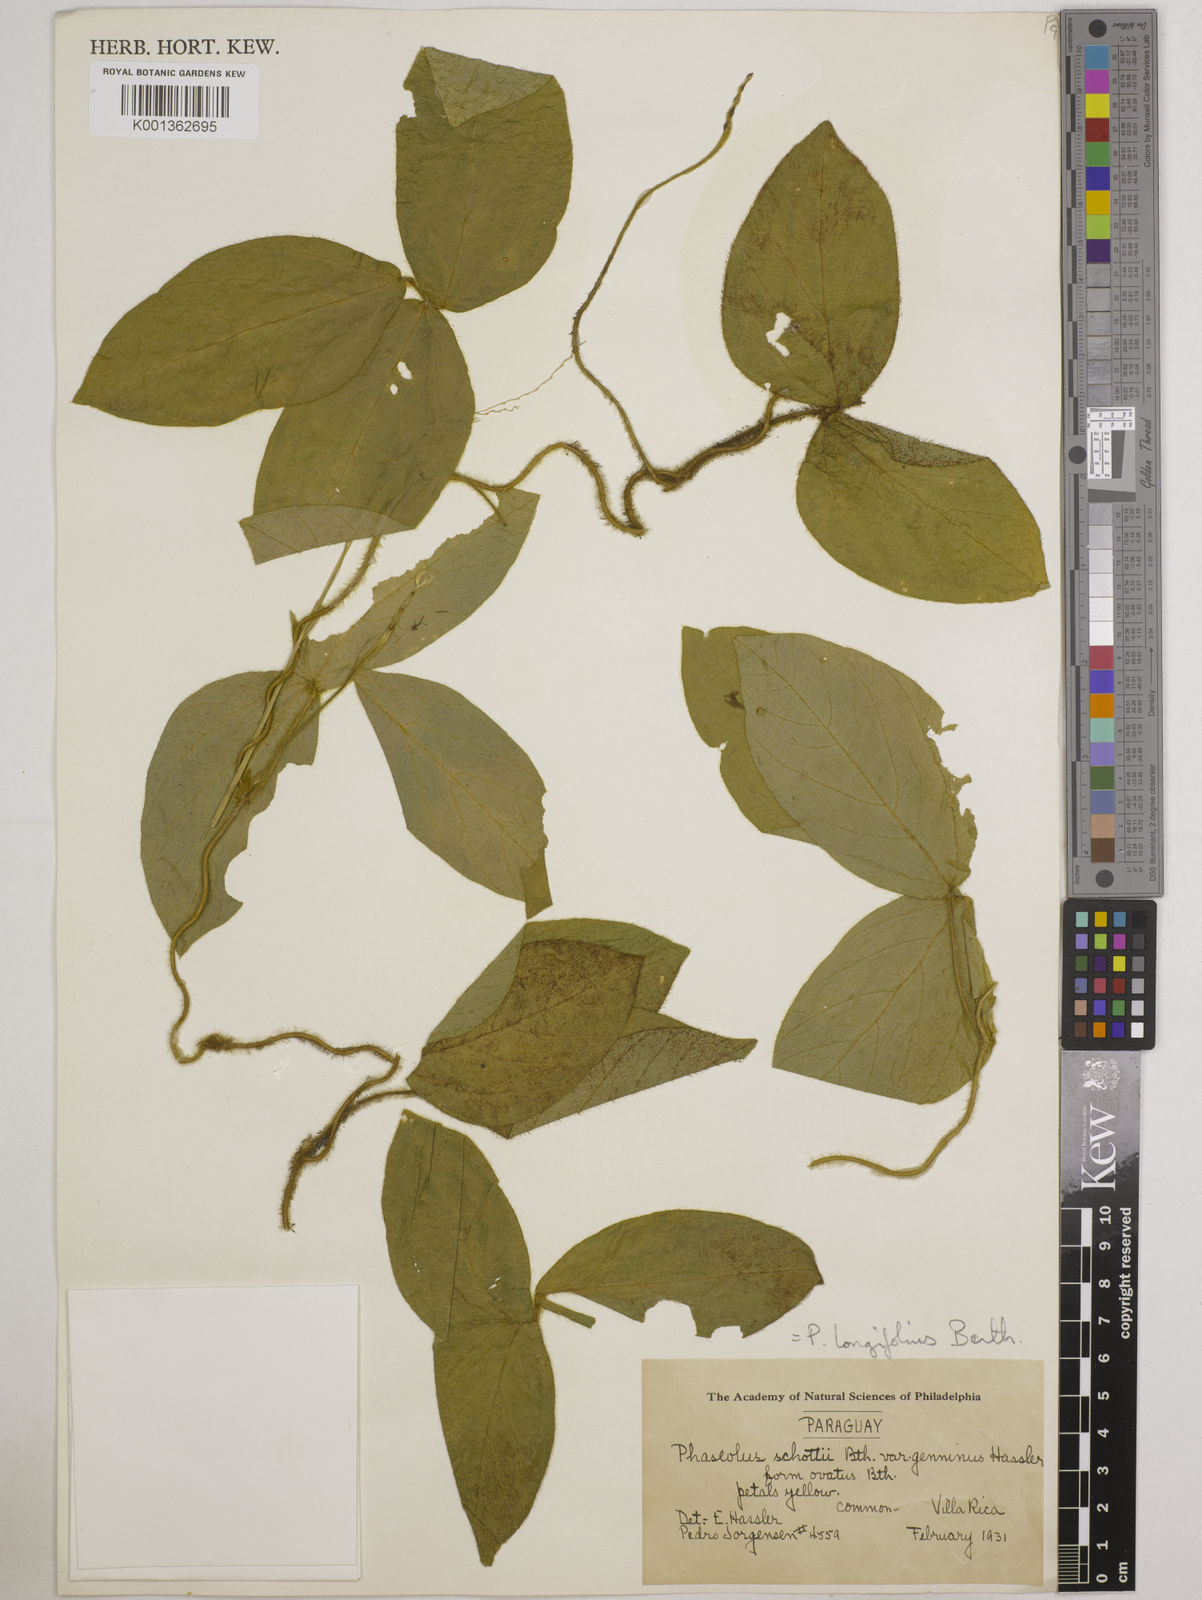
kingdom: Plantae
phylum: Tracheophyta
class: Magnoliopsida
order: Fabales
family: Fabaceae
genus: Vigna
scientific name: Vigna longifolia
